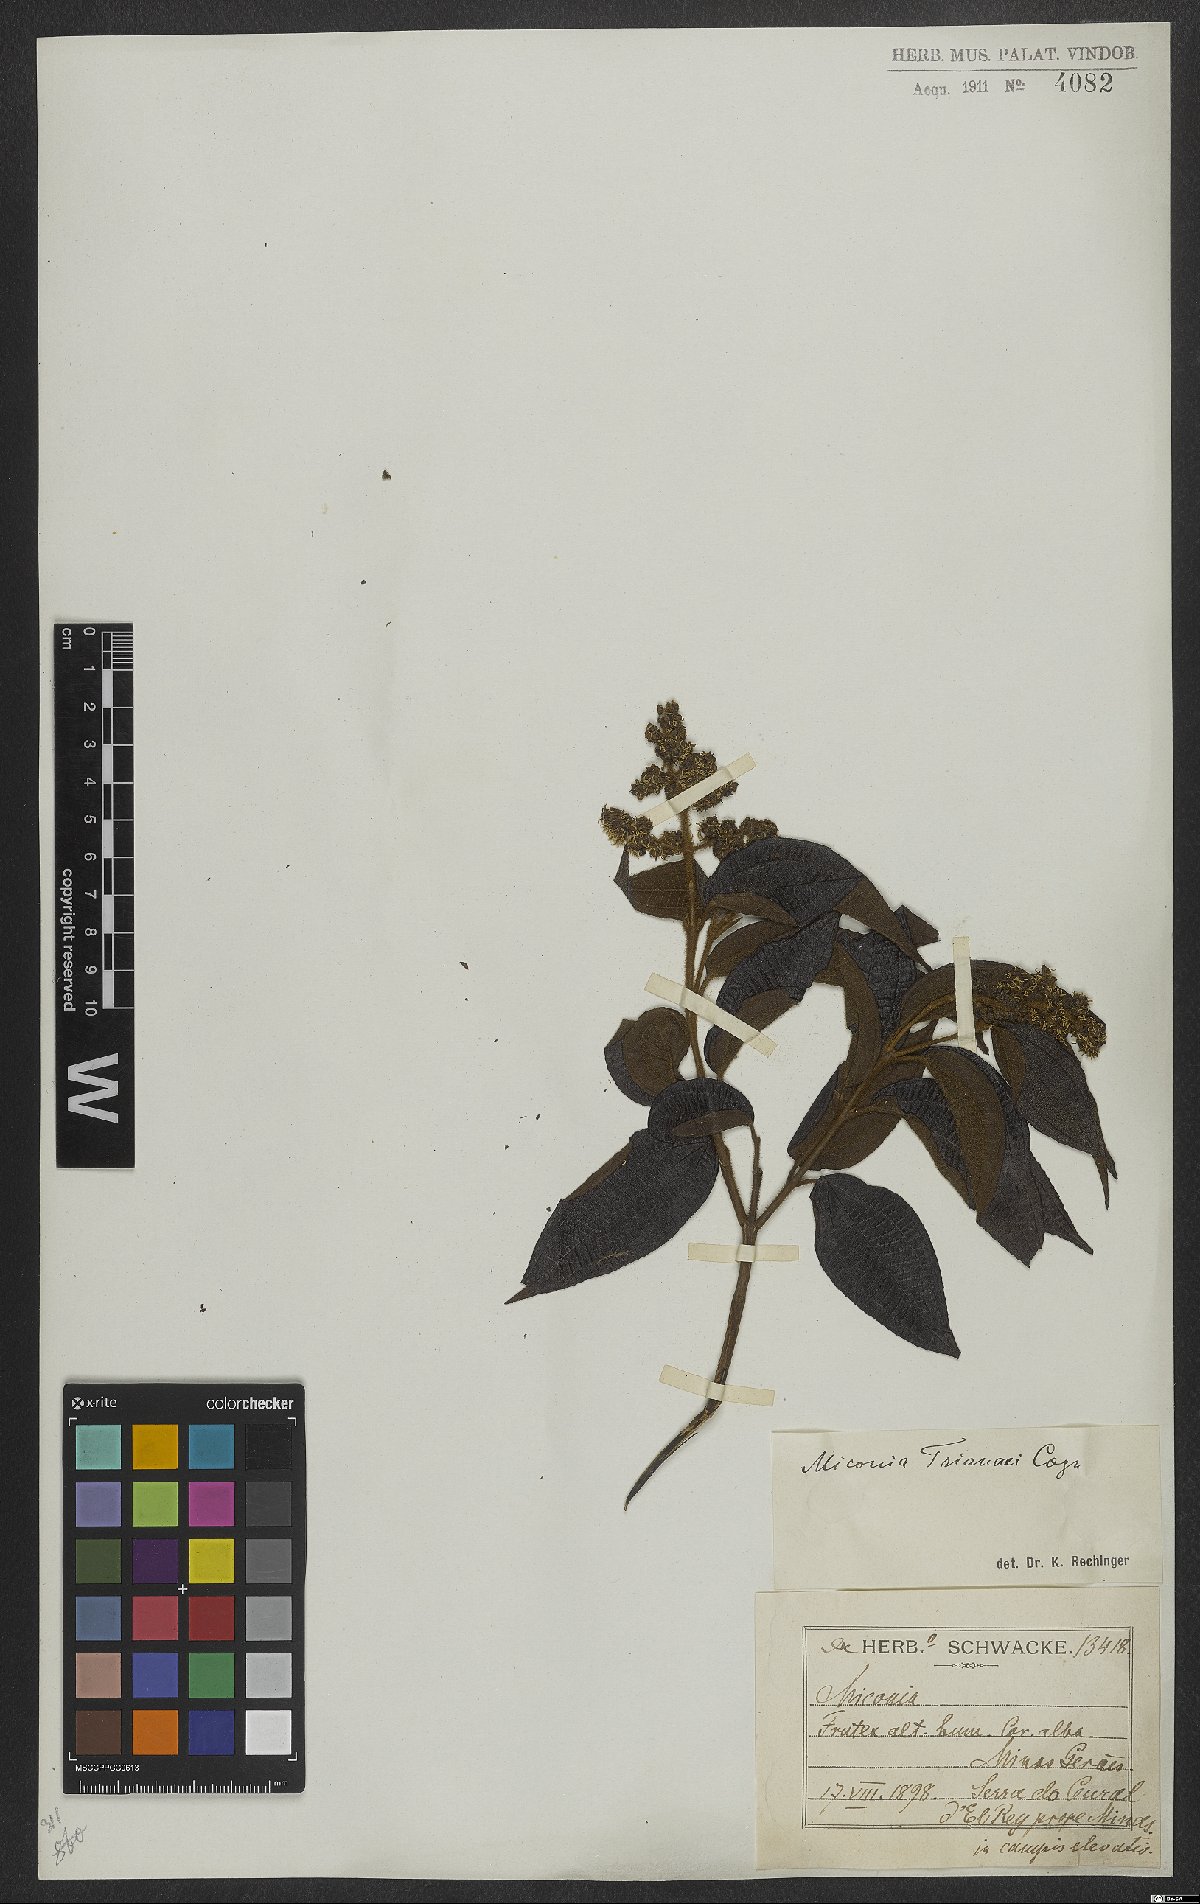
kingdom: Plantae
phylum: Tracheophyta
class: Magnoliopsida
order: Myrtales
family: Melastomataceae
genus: Miconia
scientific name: Miconia trianae
